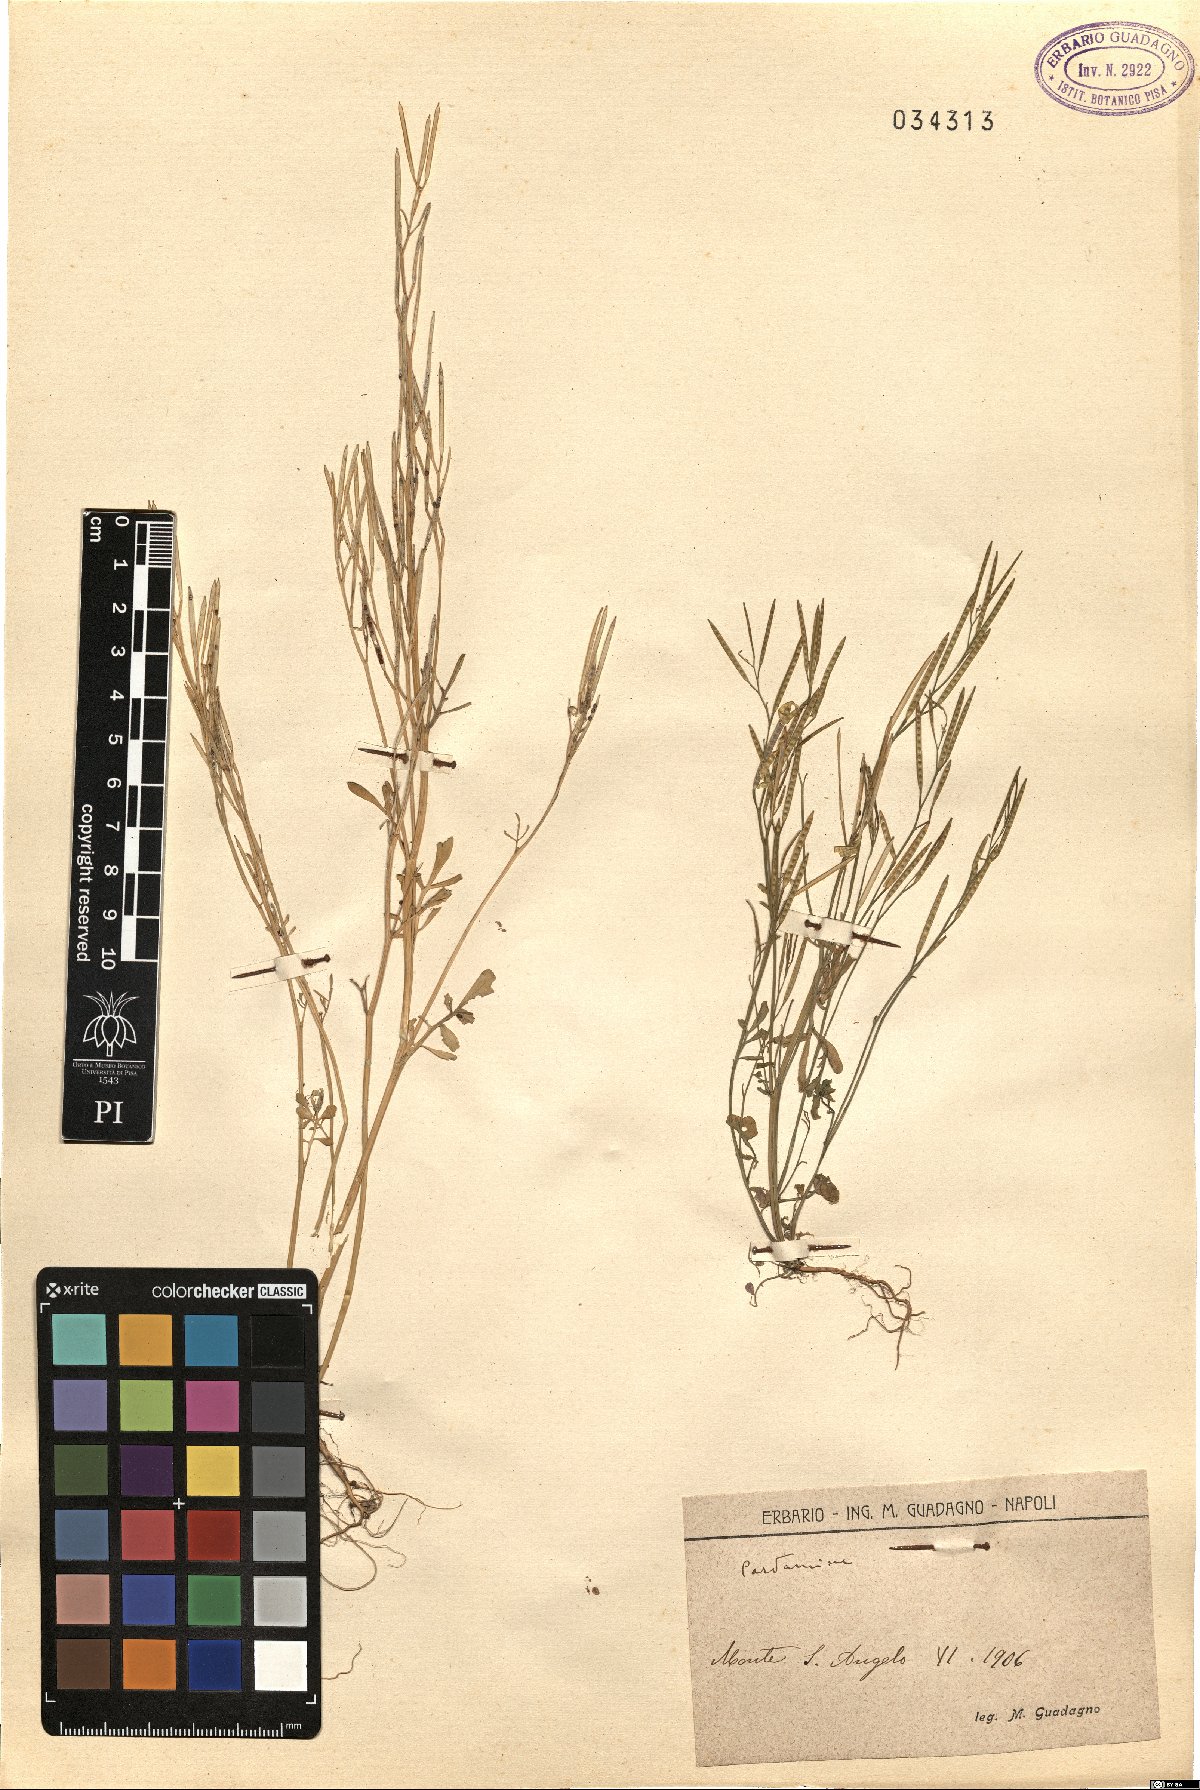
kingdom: Plantae
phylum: Tracheophyta
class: Magnoliopsida
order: Brassicales
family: Brassicaceae
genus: Cardamine
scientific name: Cardamine
